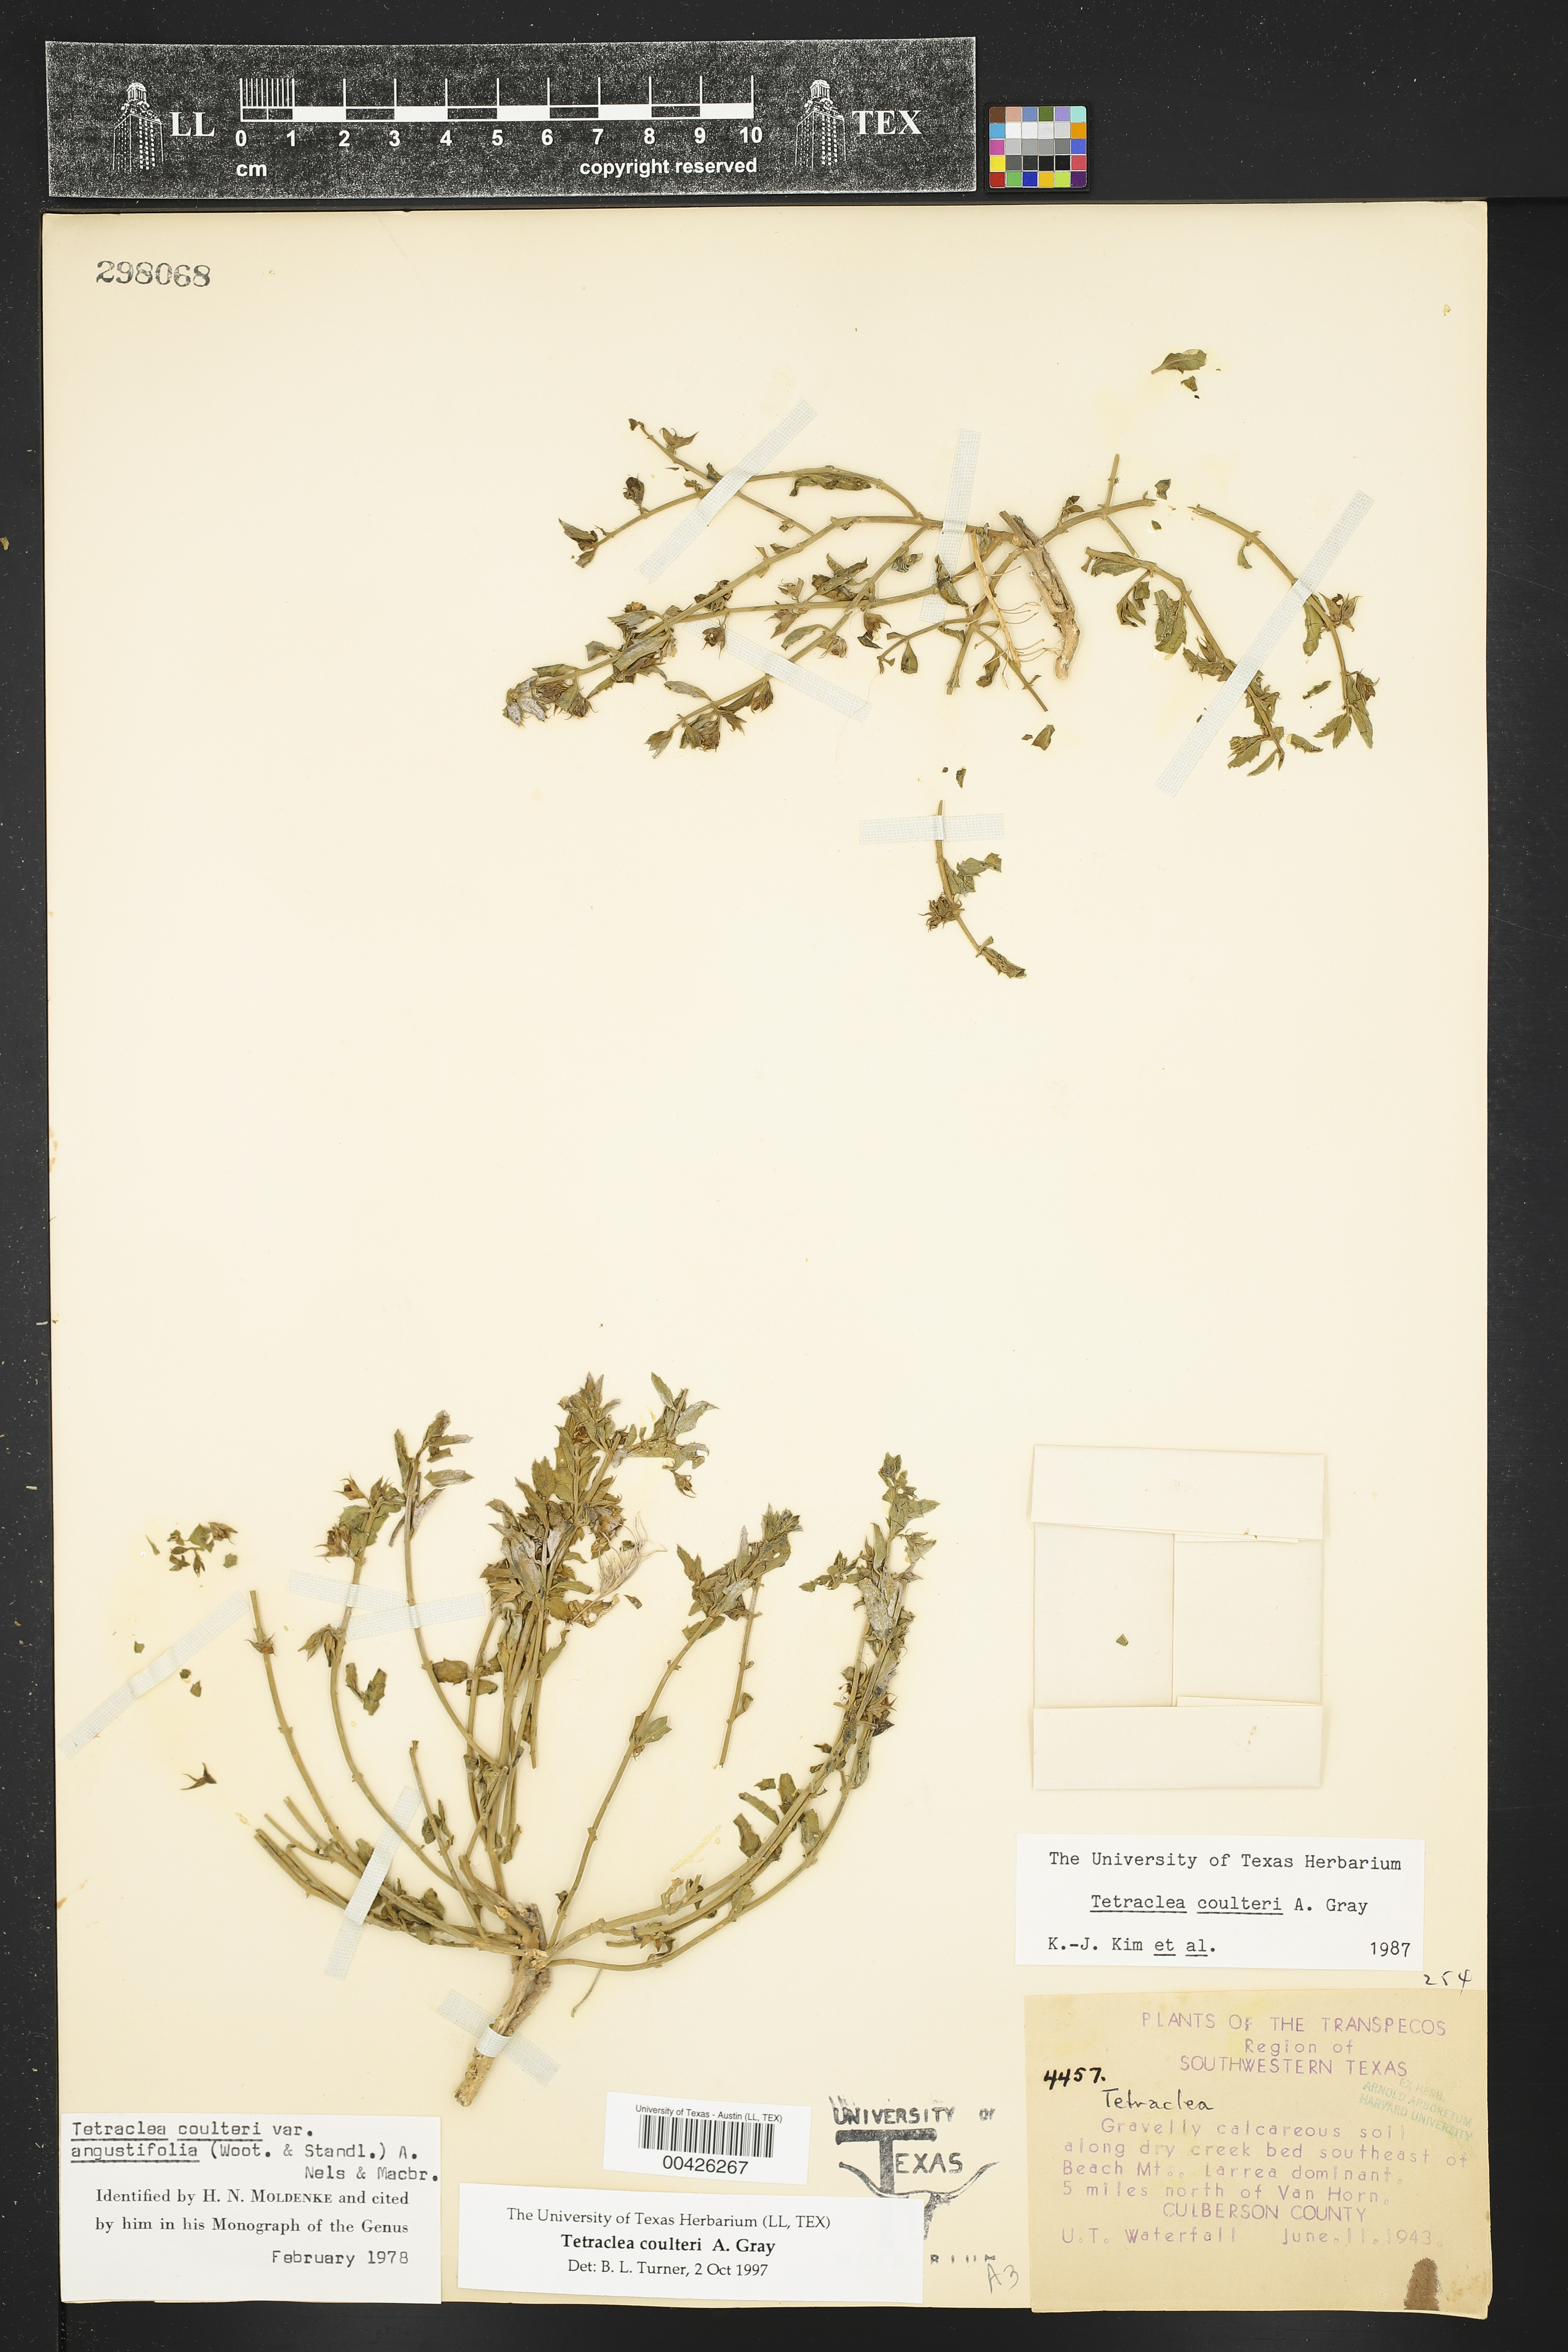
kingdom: Plantae
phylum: Tracheophyta
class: Magnoliopsida
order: Lamiales
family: Lamiaceae
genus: Tetraclea
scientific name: Tetraclea coulteri
